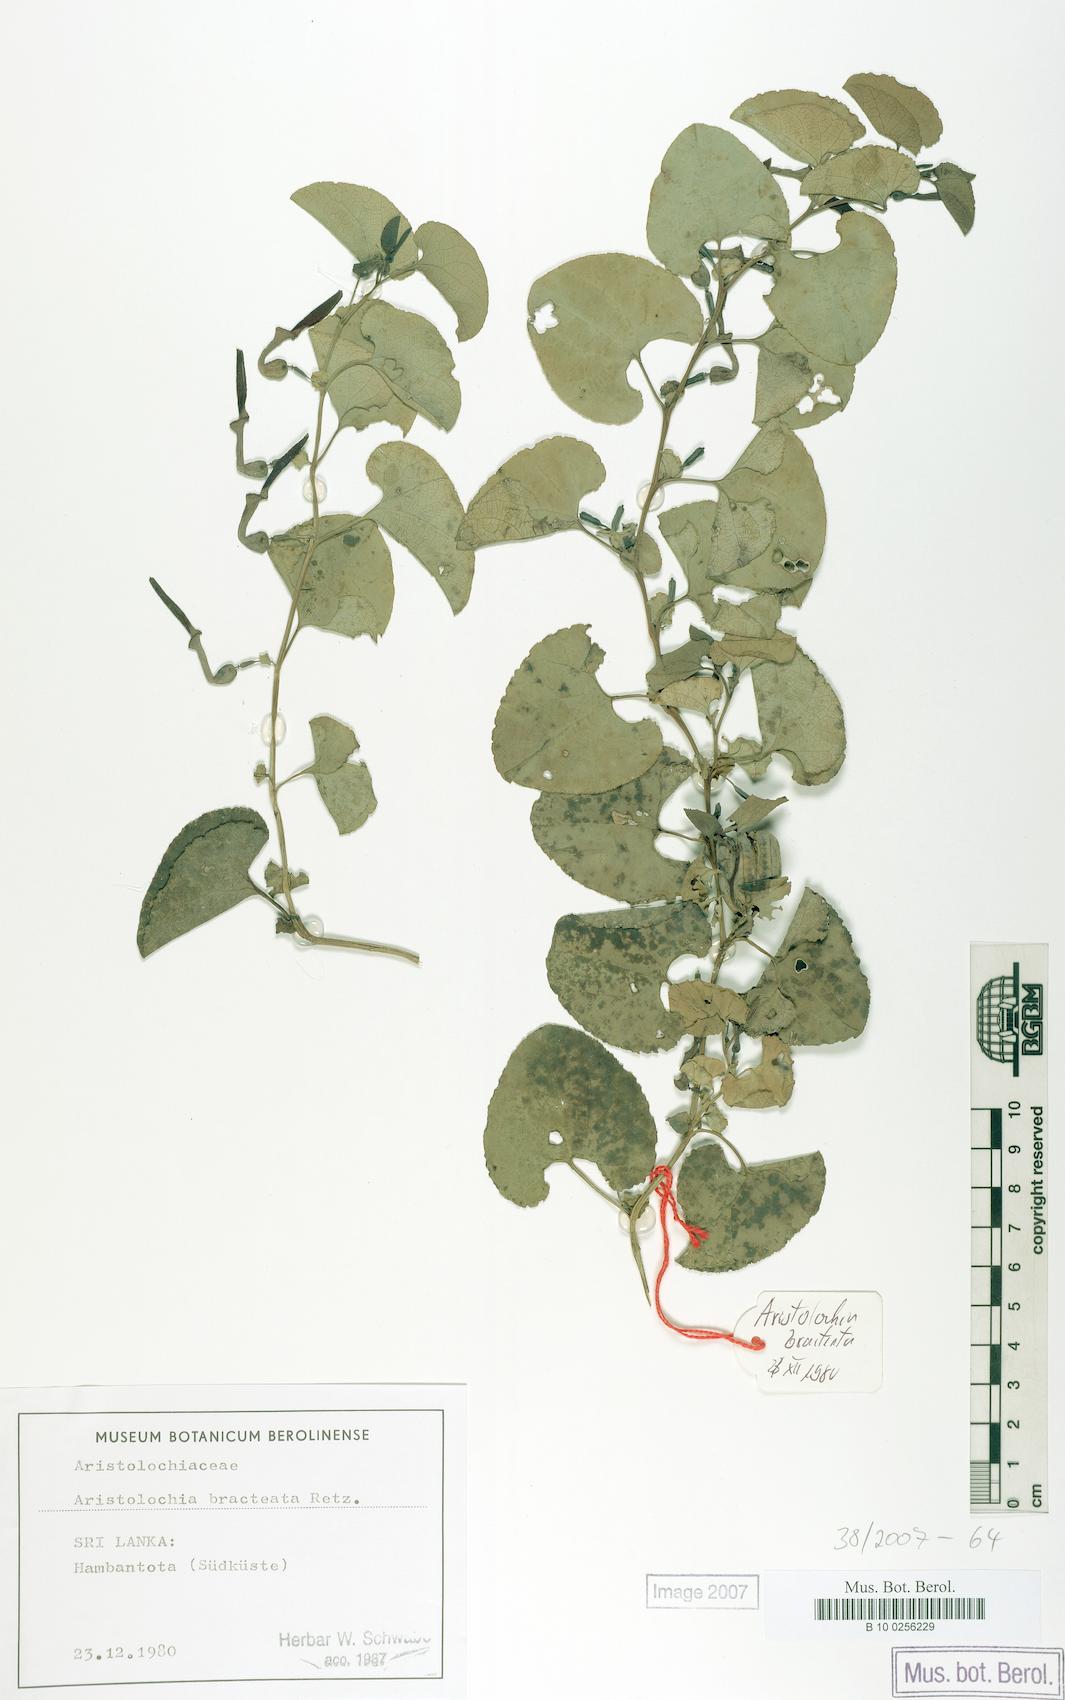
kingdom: Plantae
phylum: Tracheophyta
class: Magnoliopsida
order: Piperales
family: Aristolochiaceae
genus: Aristolochia
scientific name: Aristolochia bracteolata
